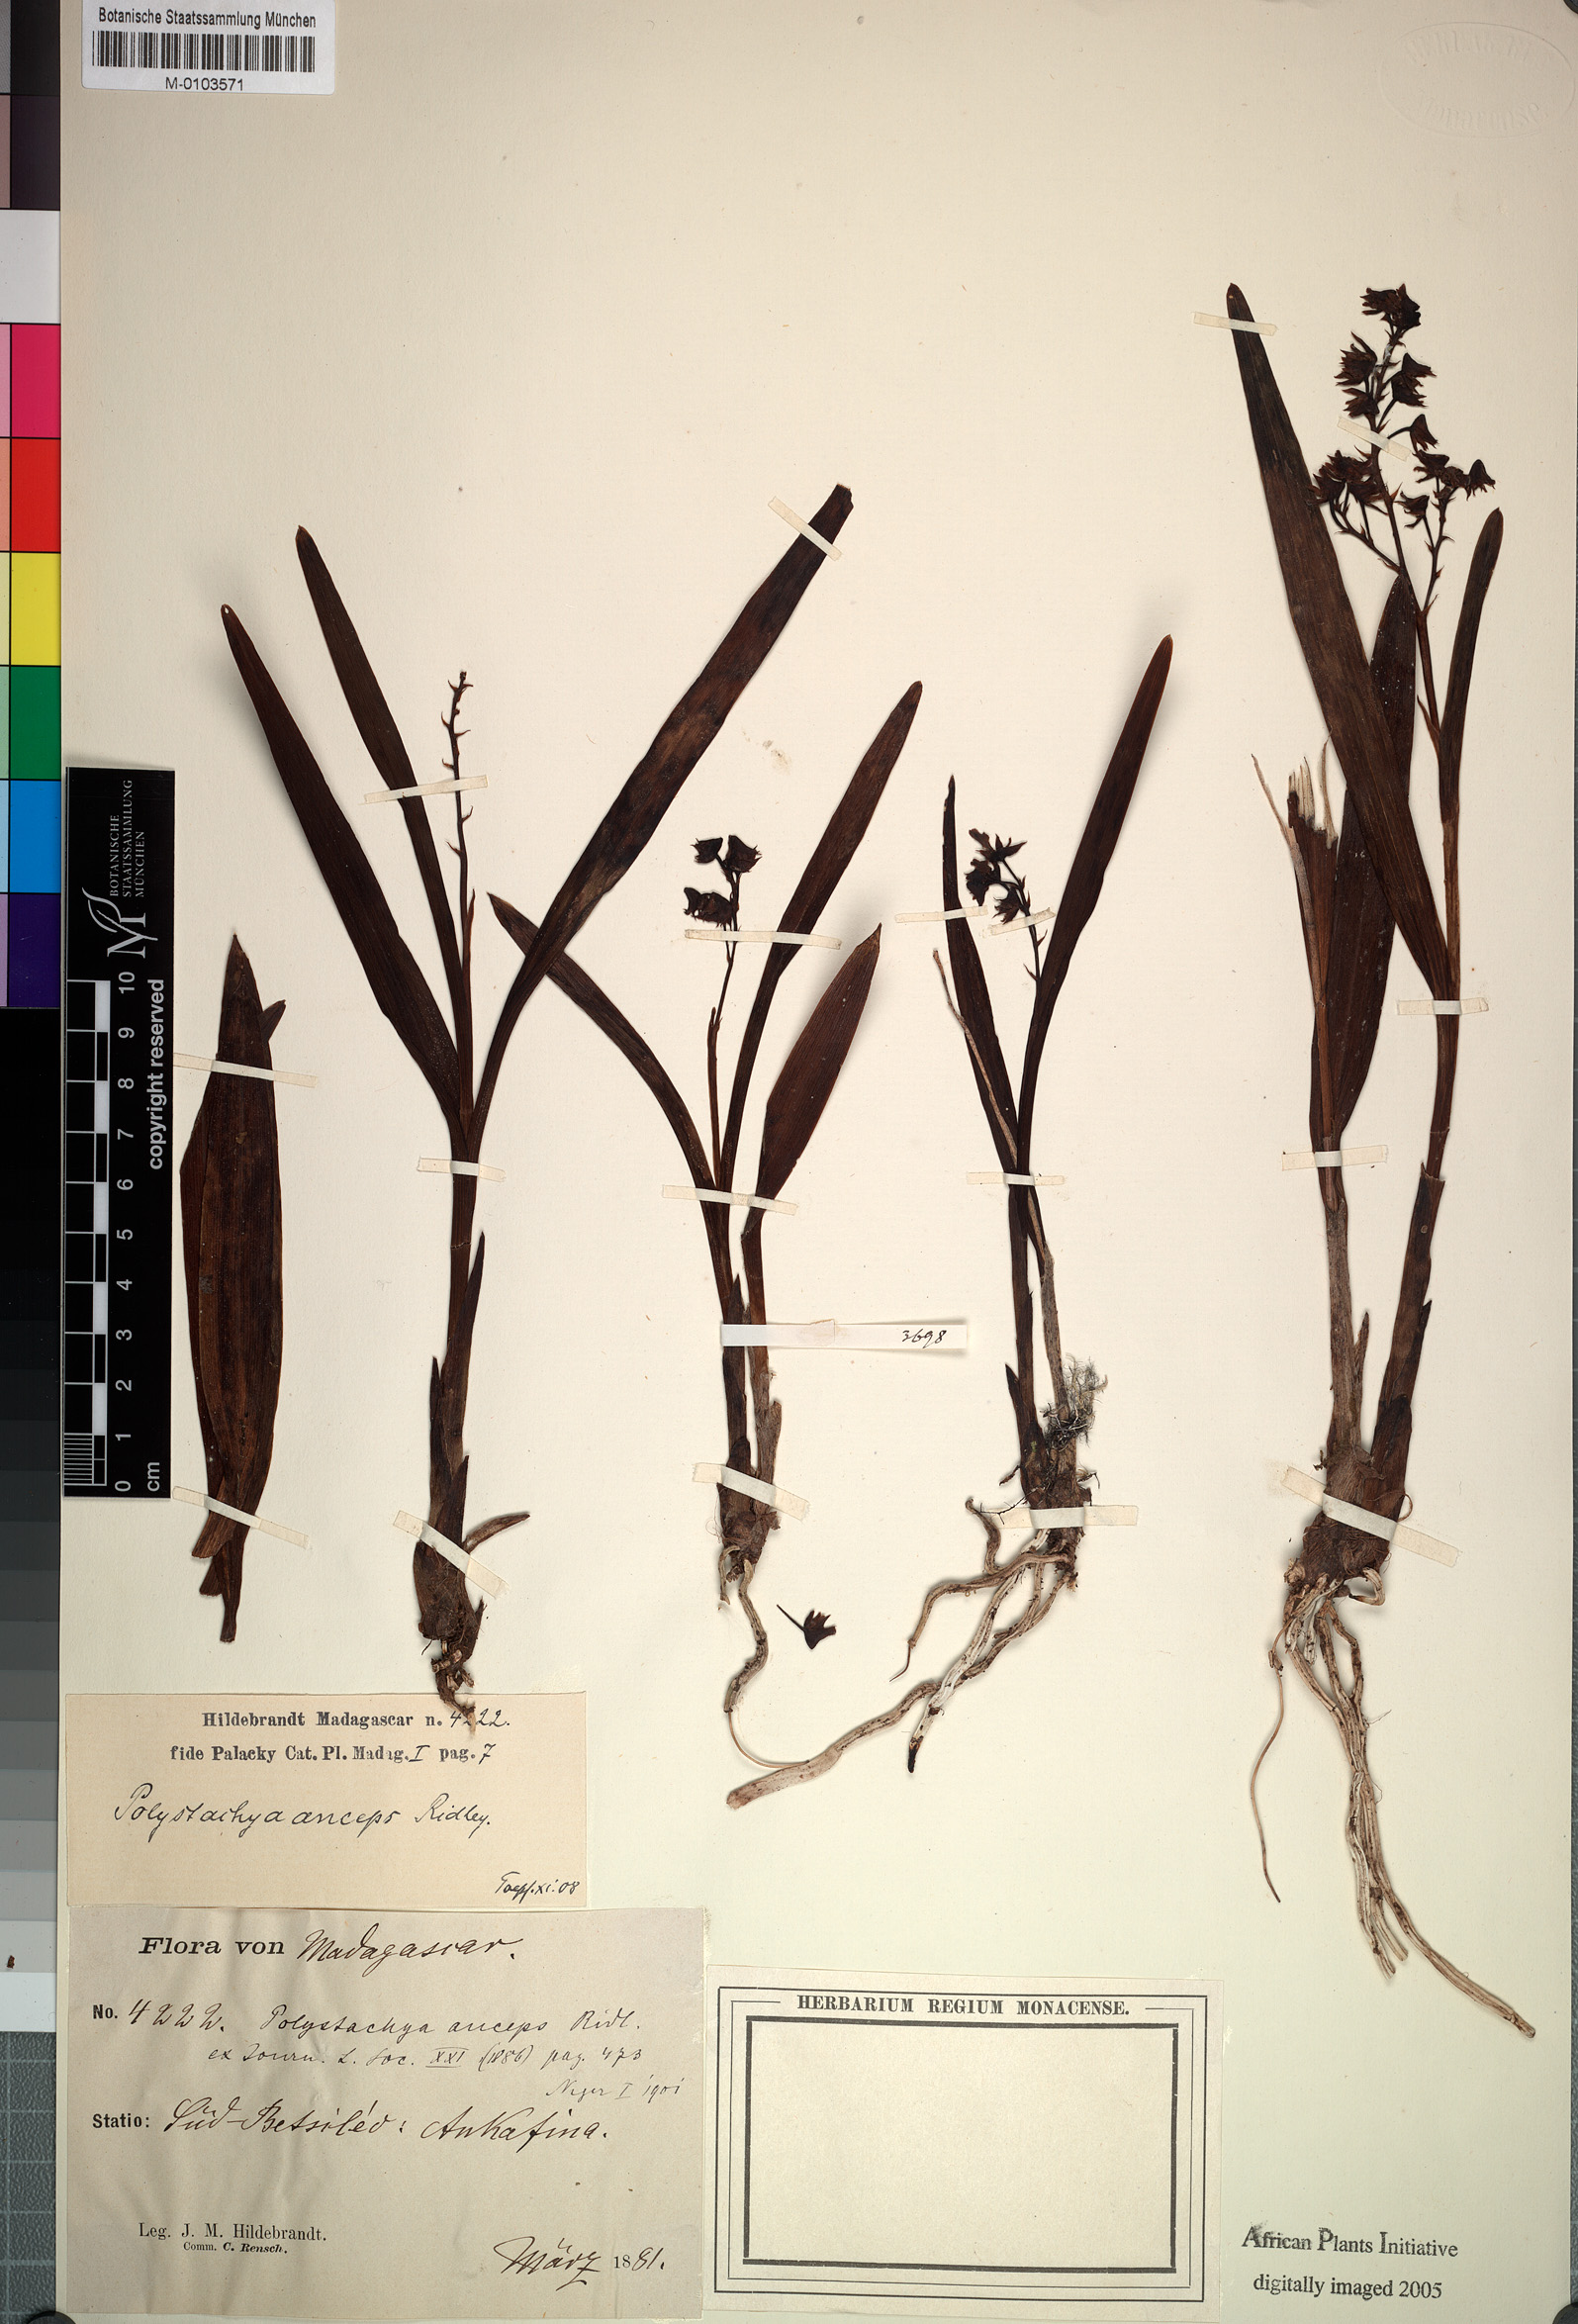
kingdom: Plantae
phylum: Tracheophyta
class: Liliopsida
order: Asparagales
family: Orchidaceae
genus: Polystachya
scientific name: Polystachya anceps
